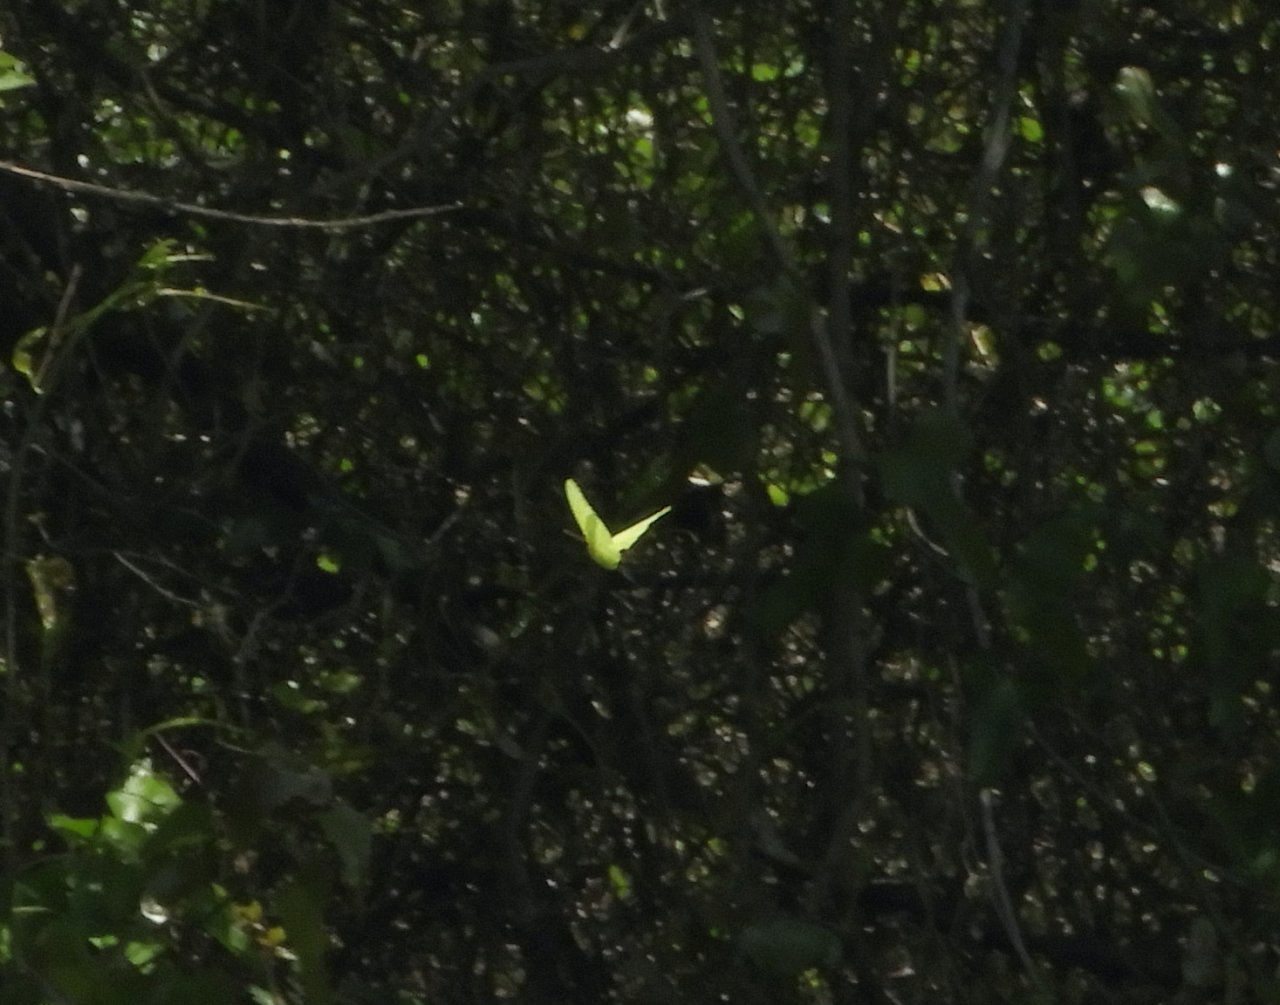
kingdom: Animalia
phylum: Arthropoda
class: Insecta
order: Lepidoptera
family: Pieridae
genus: Phoebis
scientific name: Phoebis sennae
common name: Cloudless Sulphur
